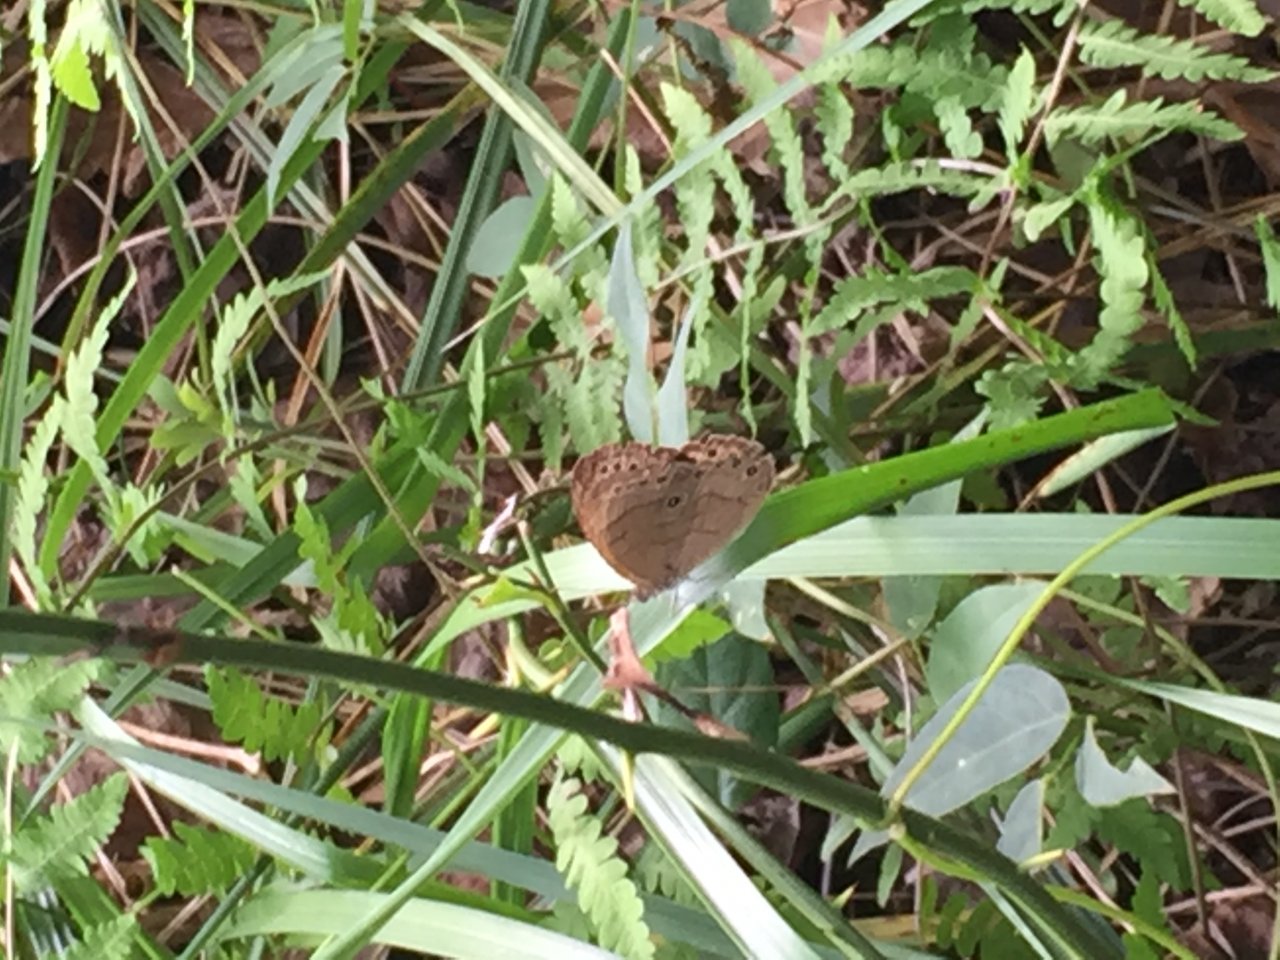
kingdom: Animalia
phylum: Arthropoda
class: Insecta
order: Lepidoptera
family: Nymphalidae
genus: Lethe
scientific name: Lethe eurydice
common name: Appalachian Eyed Brown
